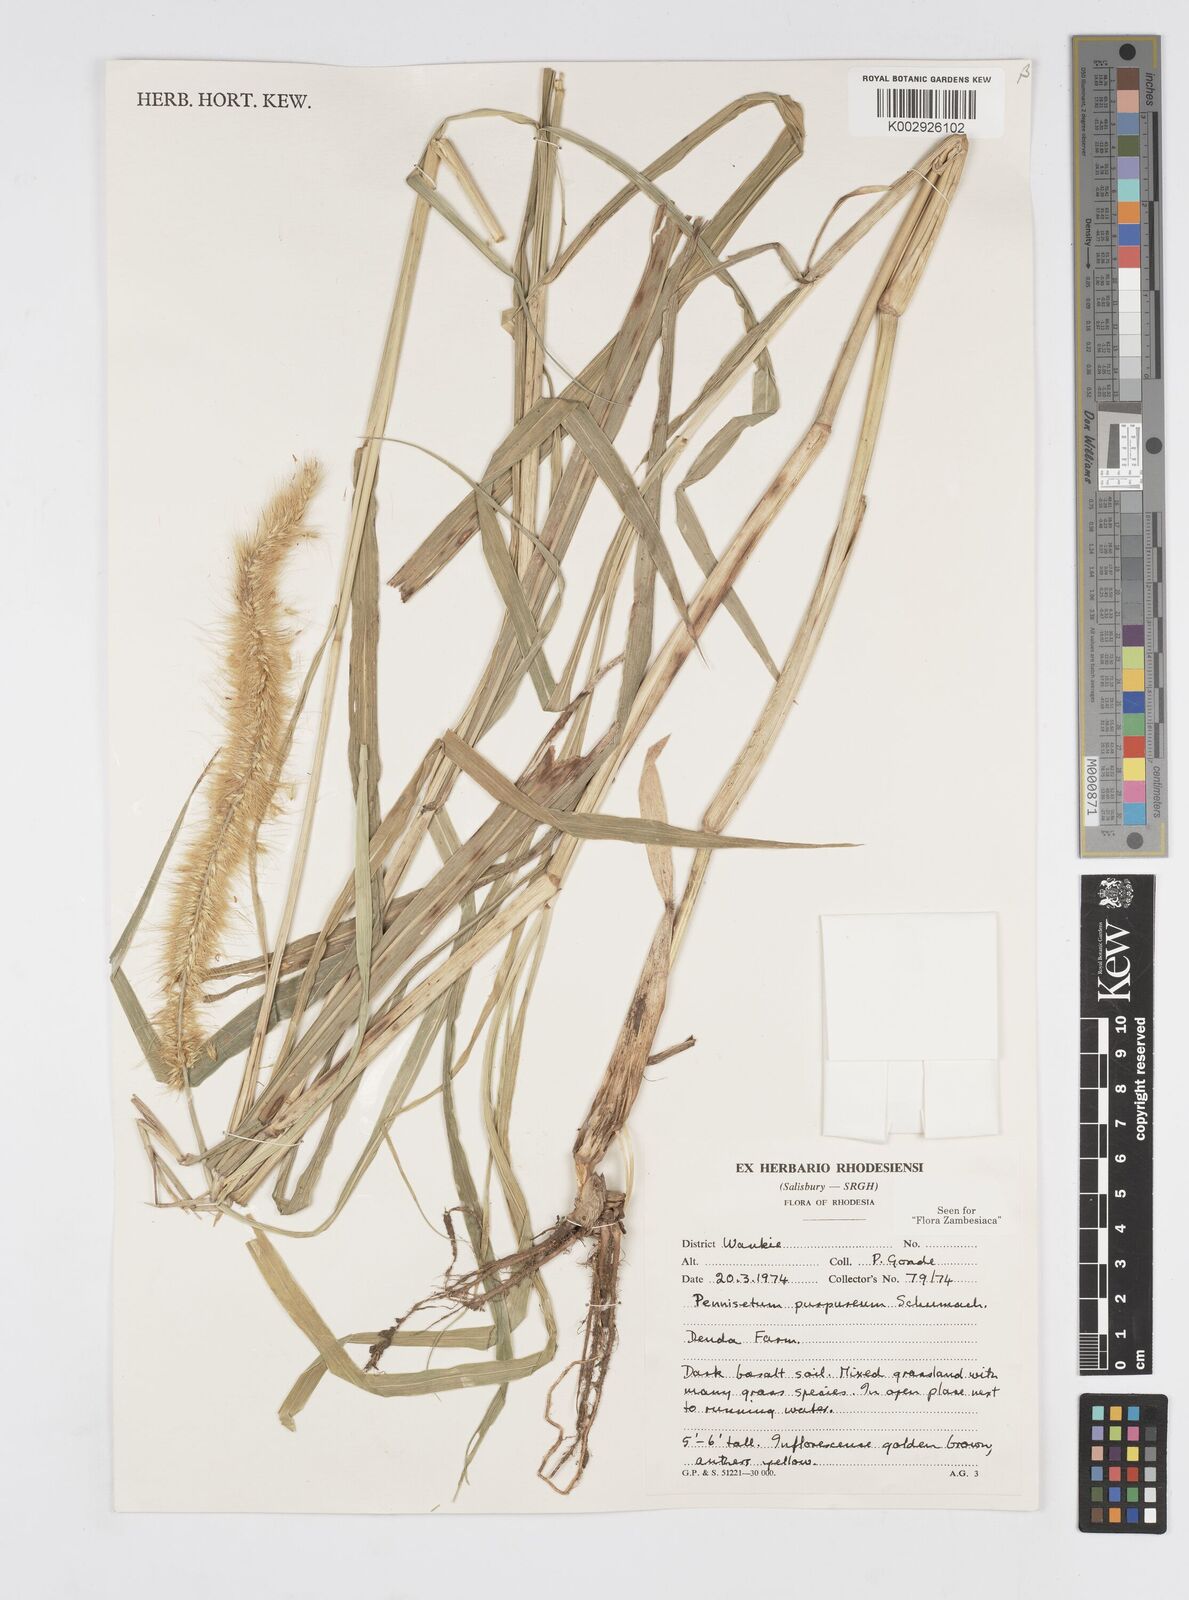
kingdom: Plantae
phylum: Tracheophyta
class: Liliopsida
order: Poales
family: Poaceae
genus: Cenchrus
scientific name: Cenchrus purpureus
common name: Elephant grass
